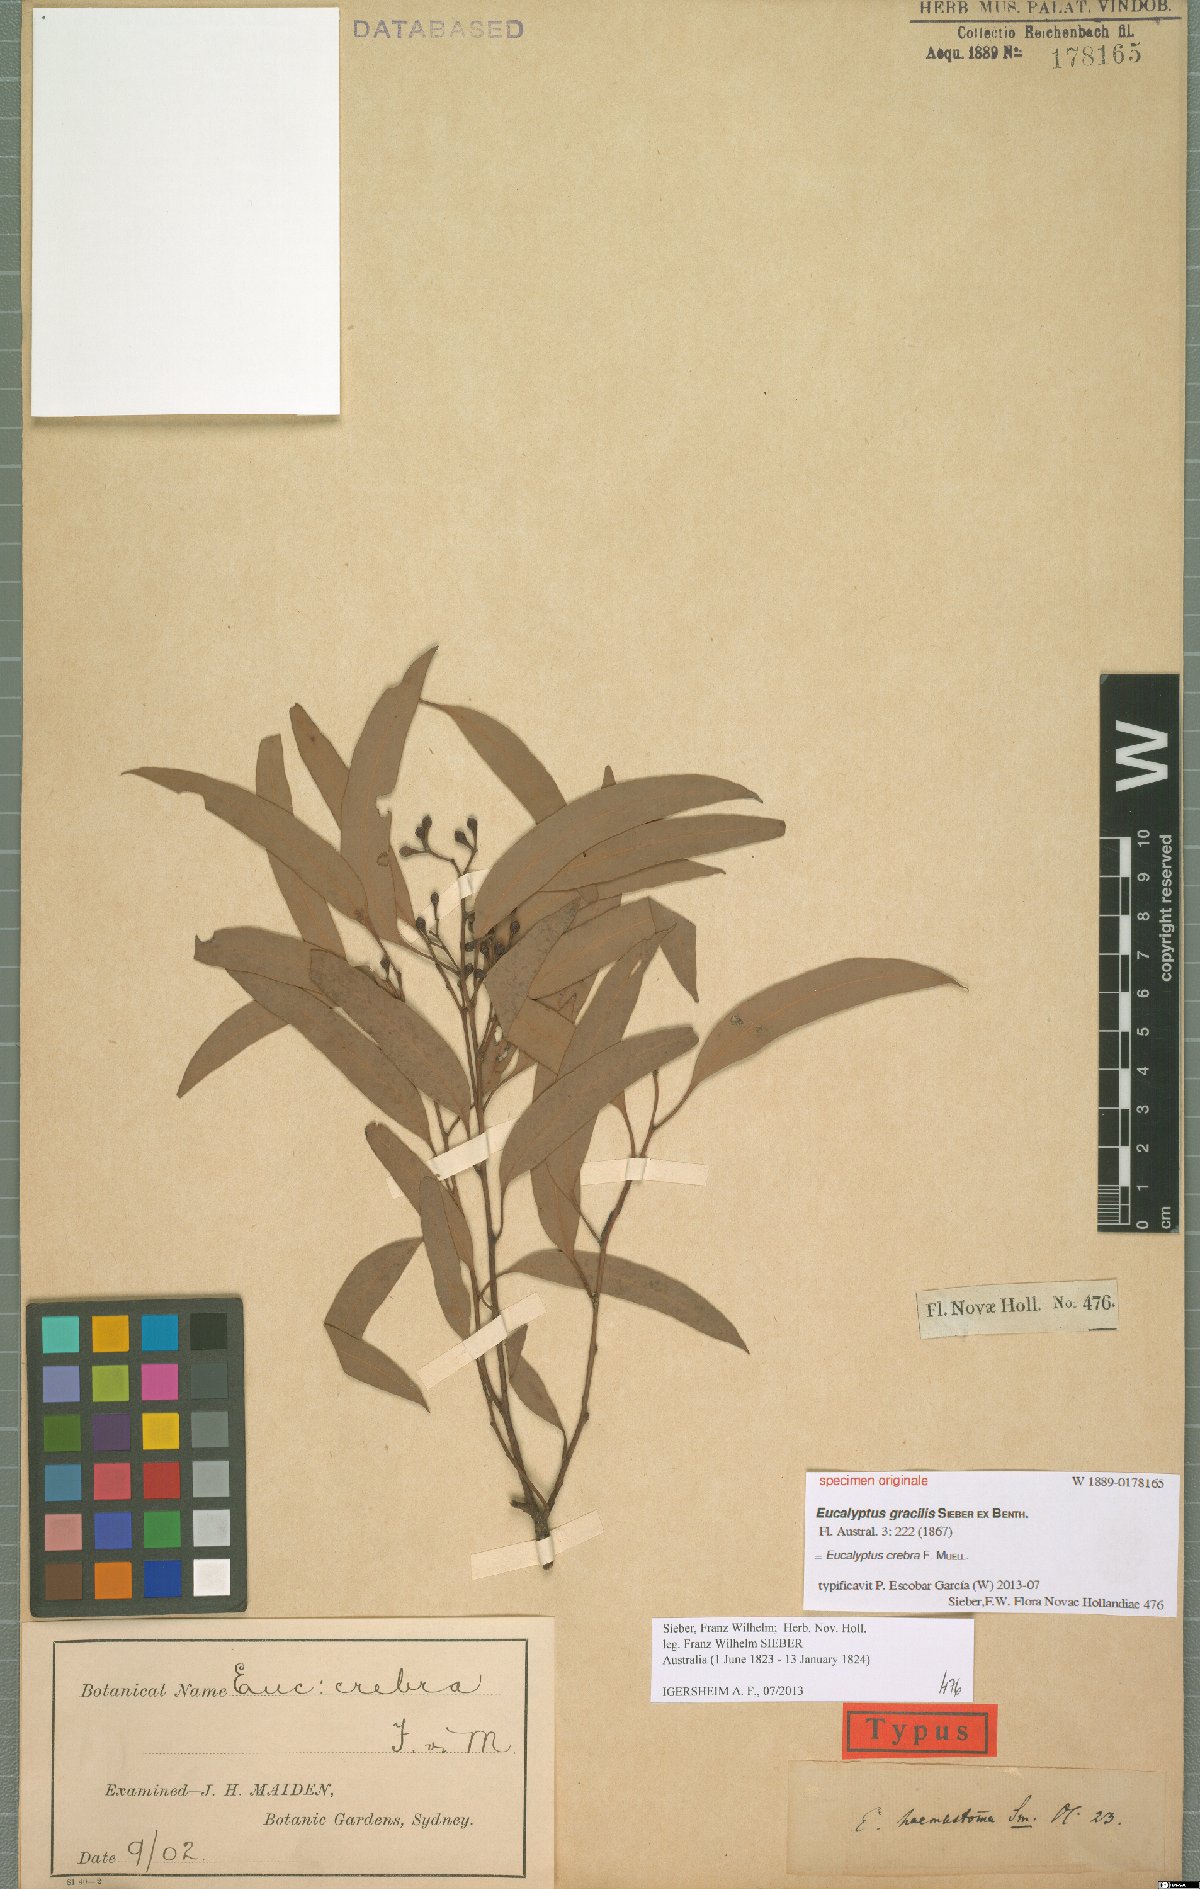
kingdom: Plantae
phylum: Tracheophyta
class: Magnoliopsida
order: Myrtales
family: Myrtaceae
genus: Eucalyptus
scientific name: Eucalyptus crebra
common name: Narrowleaf red ironbark
